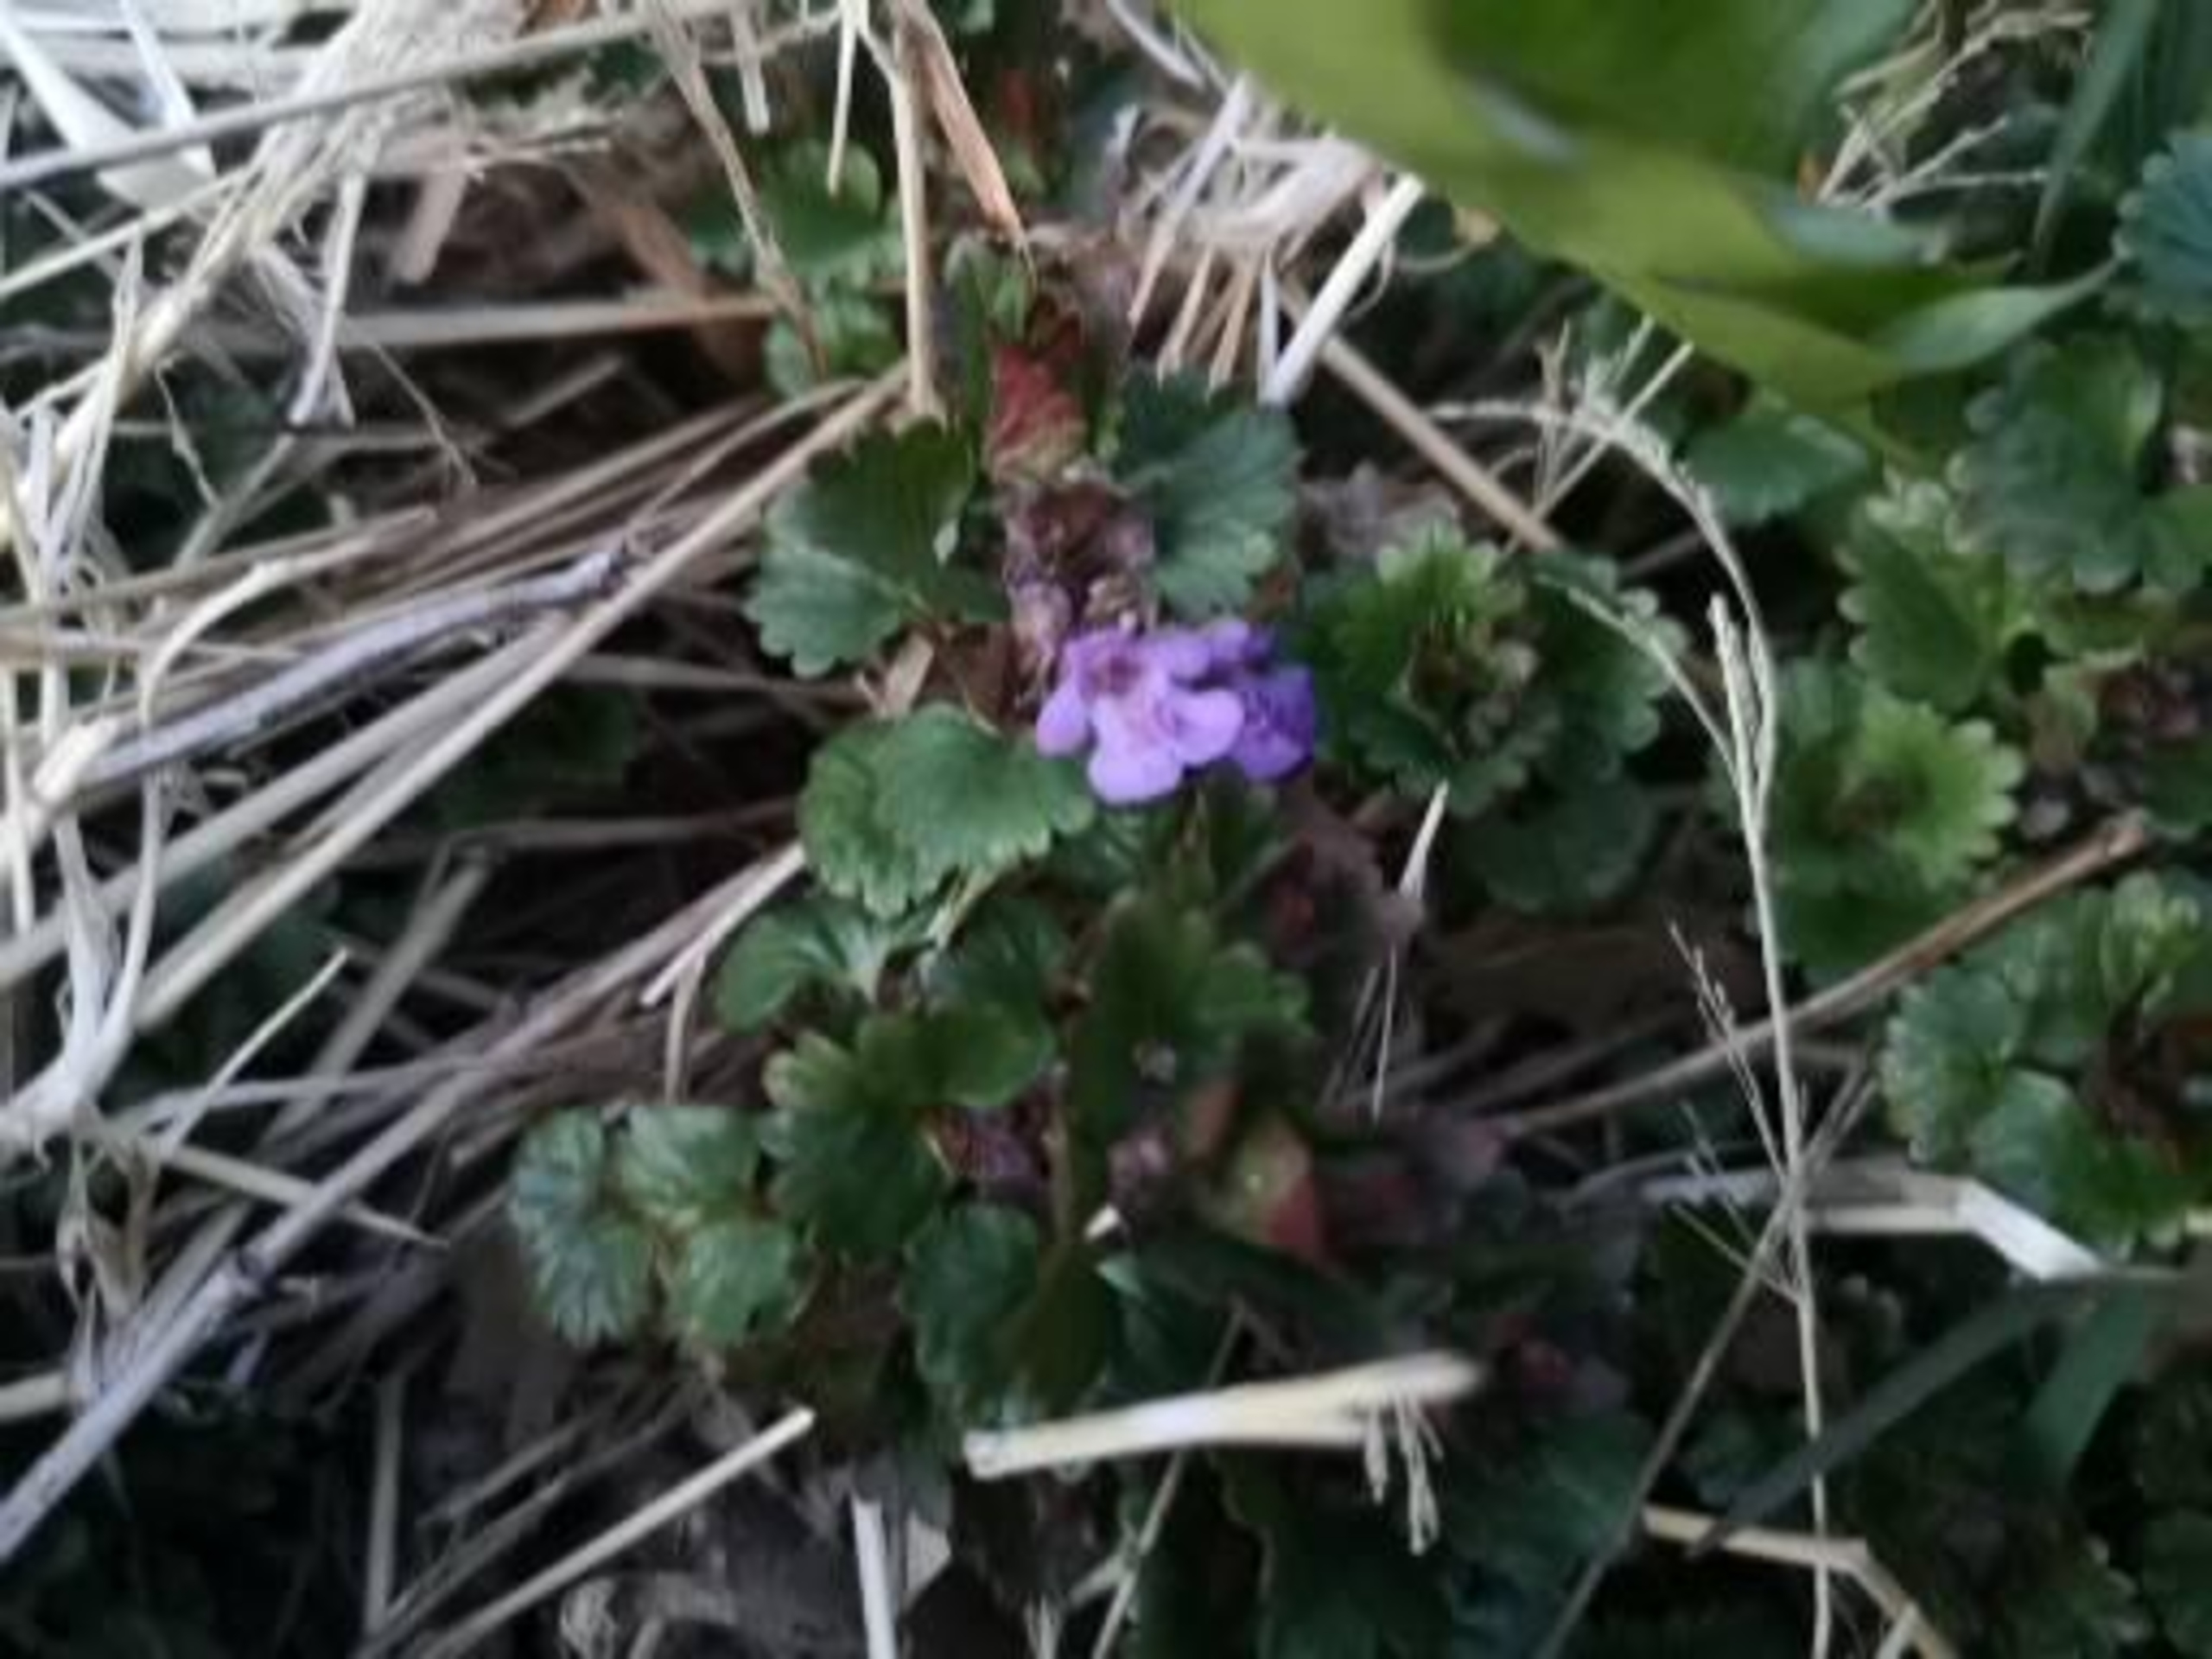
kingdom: Plantae
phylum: Tracheophyta
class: Magnoliopsida
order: Lamiales
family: Lamiaceae
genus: Glechoma
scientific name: Glechoma hederacea
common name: Korsknap
